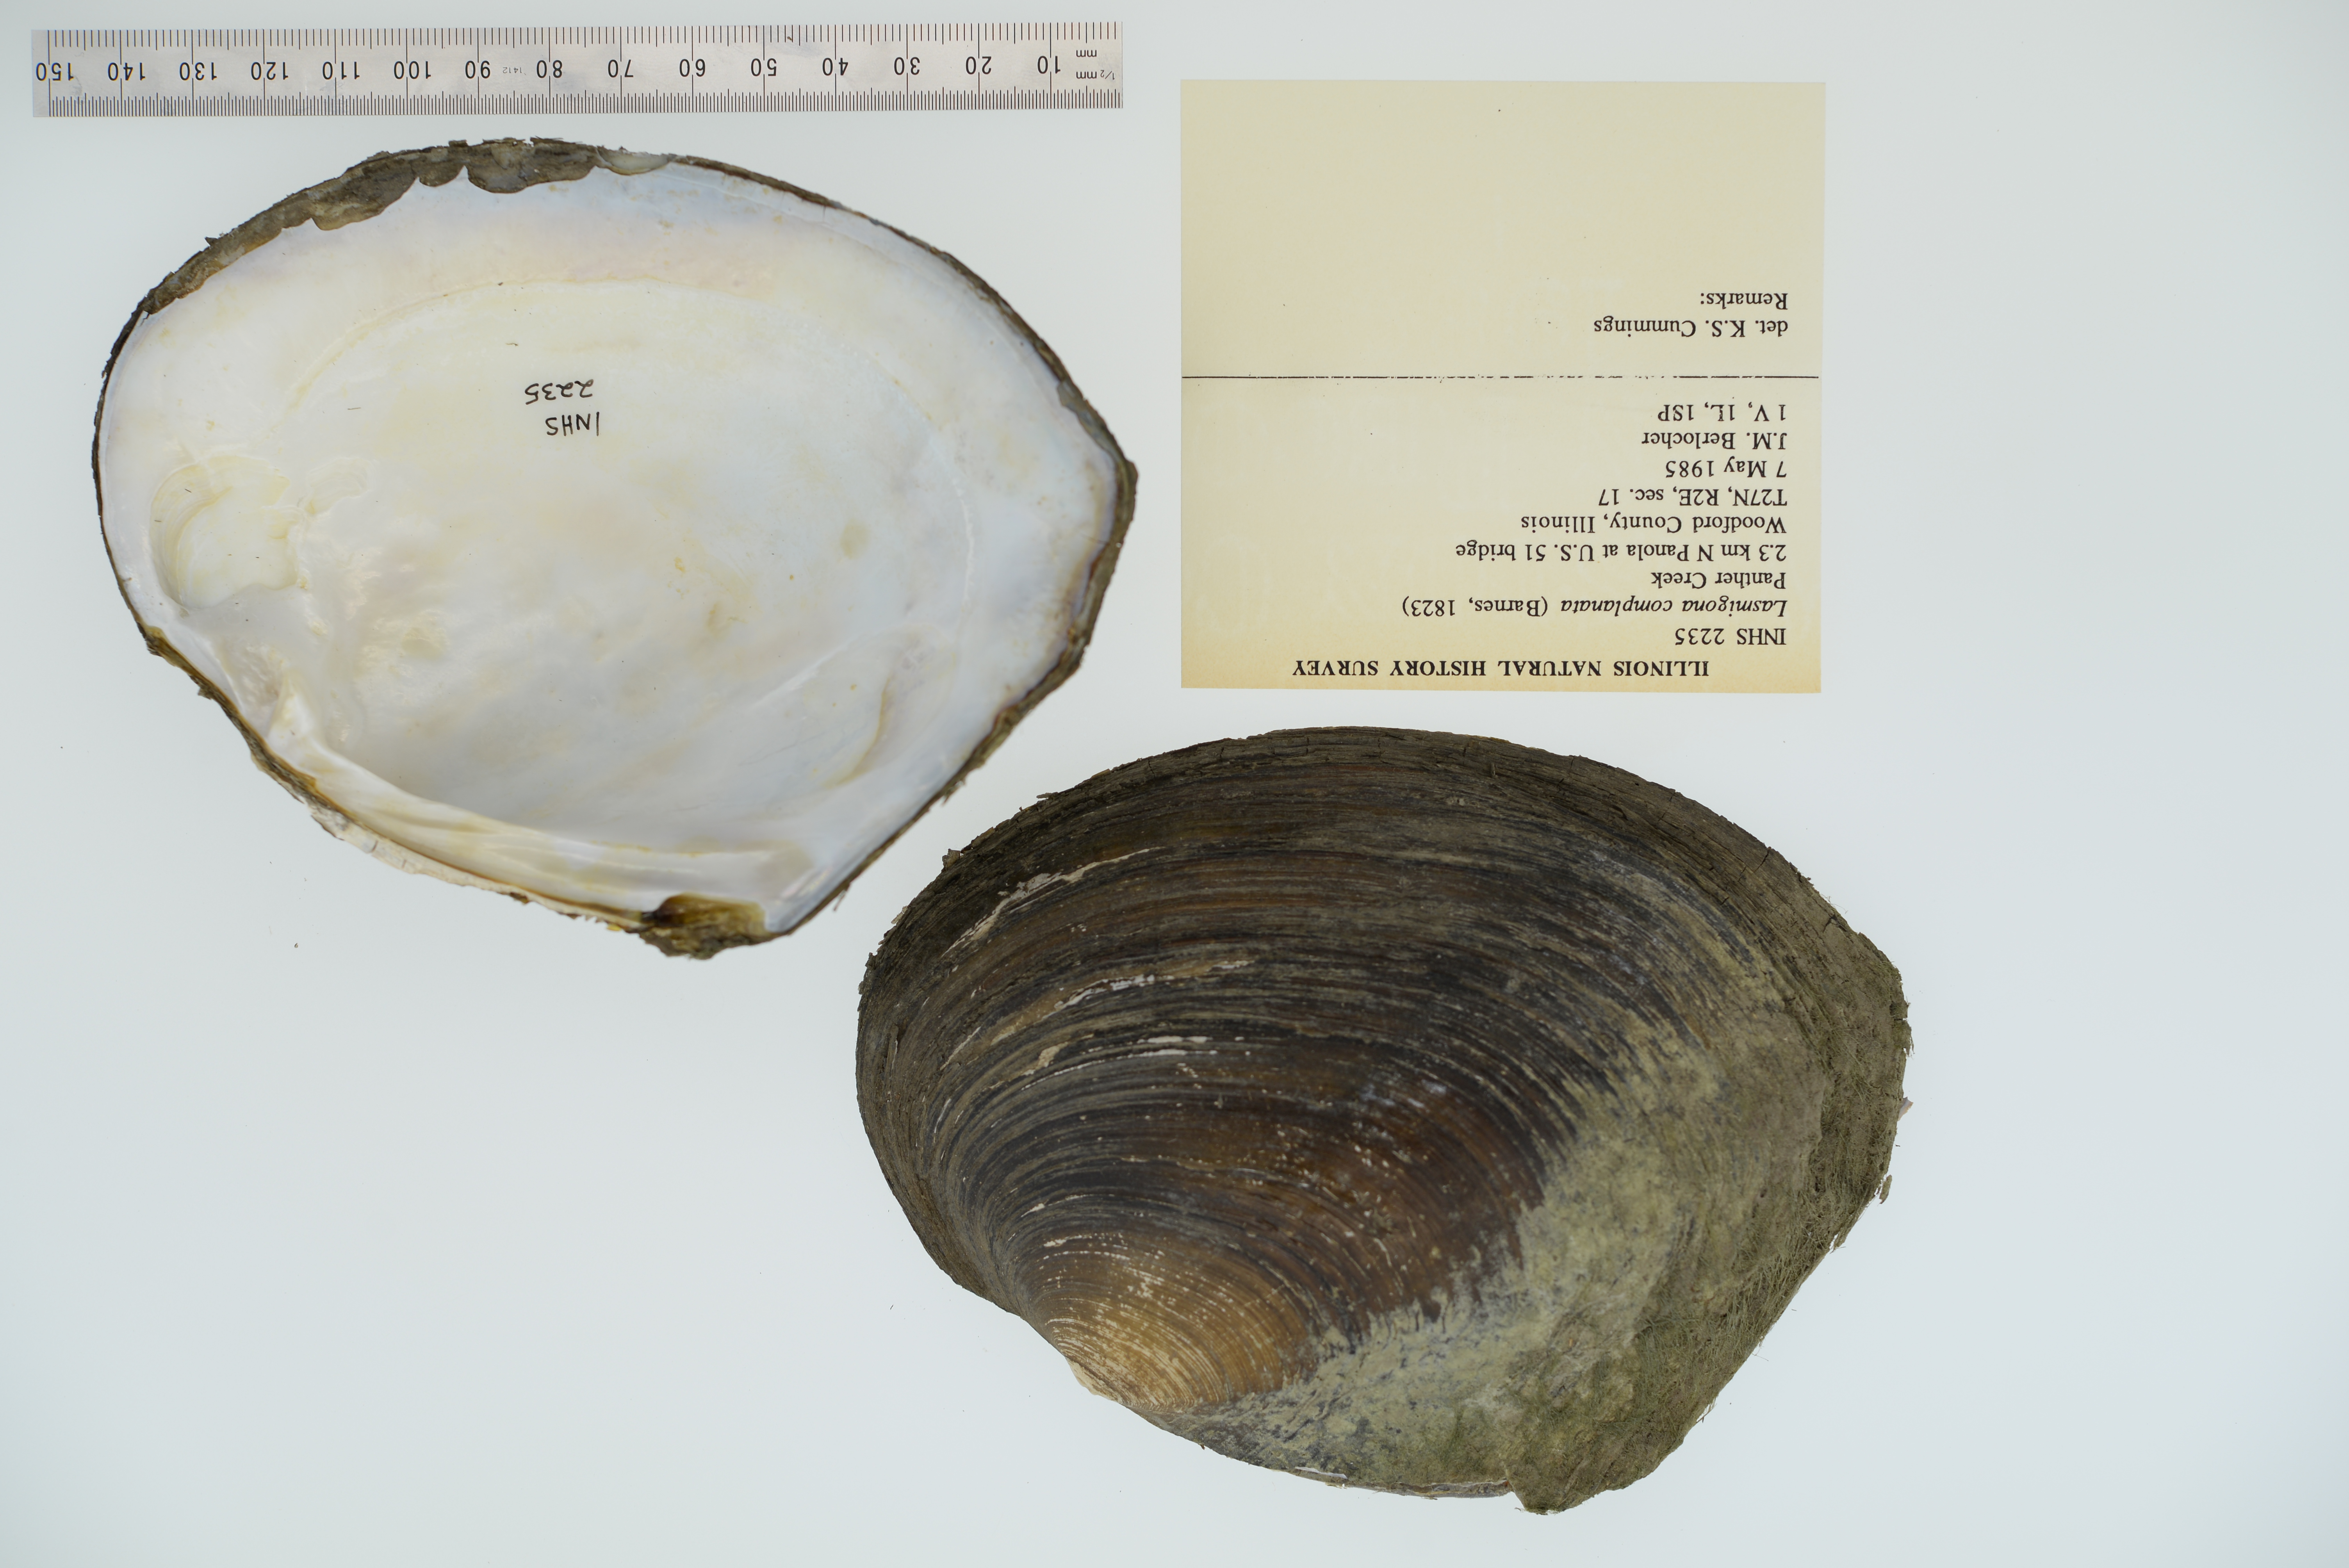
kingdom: Animalia
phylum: Mollusca
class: Bivalvia
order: Unionida
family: Unionidae
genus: Lasmigona
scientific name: Lasmigona complanata
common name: White heelsplitter
